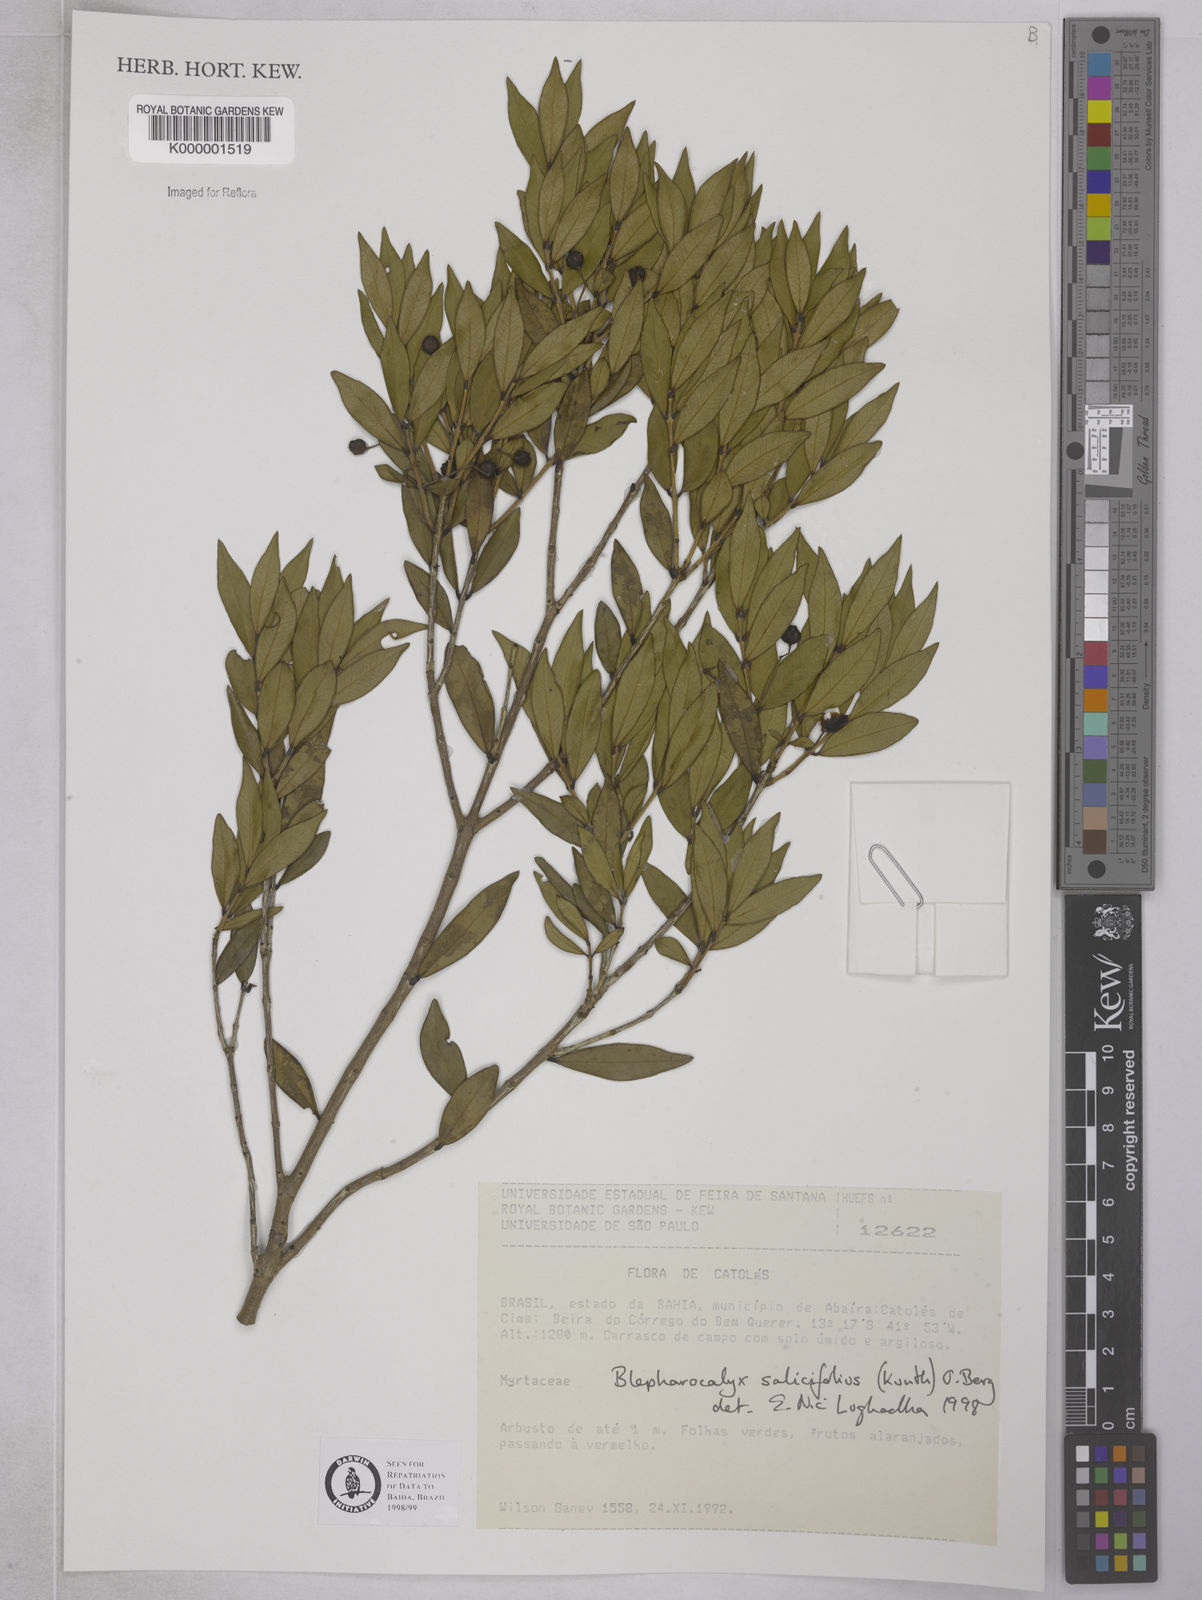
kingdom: Plantae
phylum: Tracheophyta
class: Magnoliopsida
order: Myrtales
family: Myrtaceae
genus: Blepharocalyx
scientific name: Blepharocalyx salicifolius
